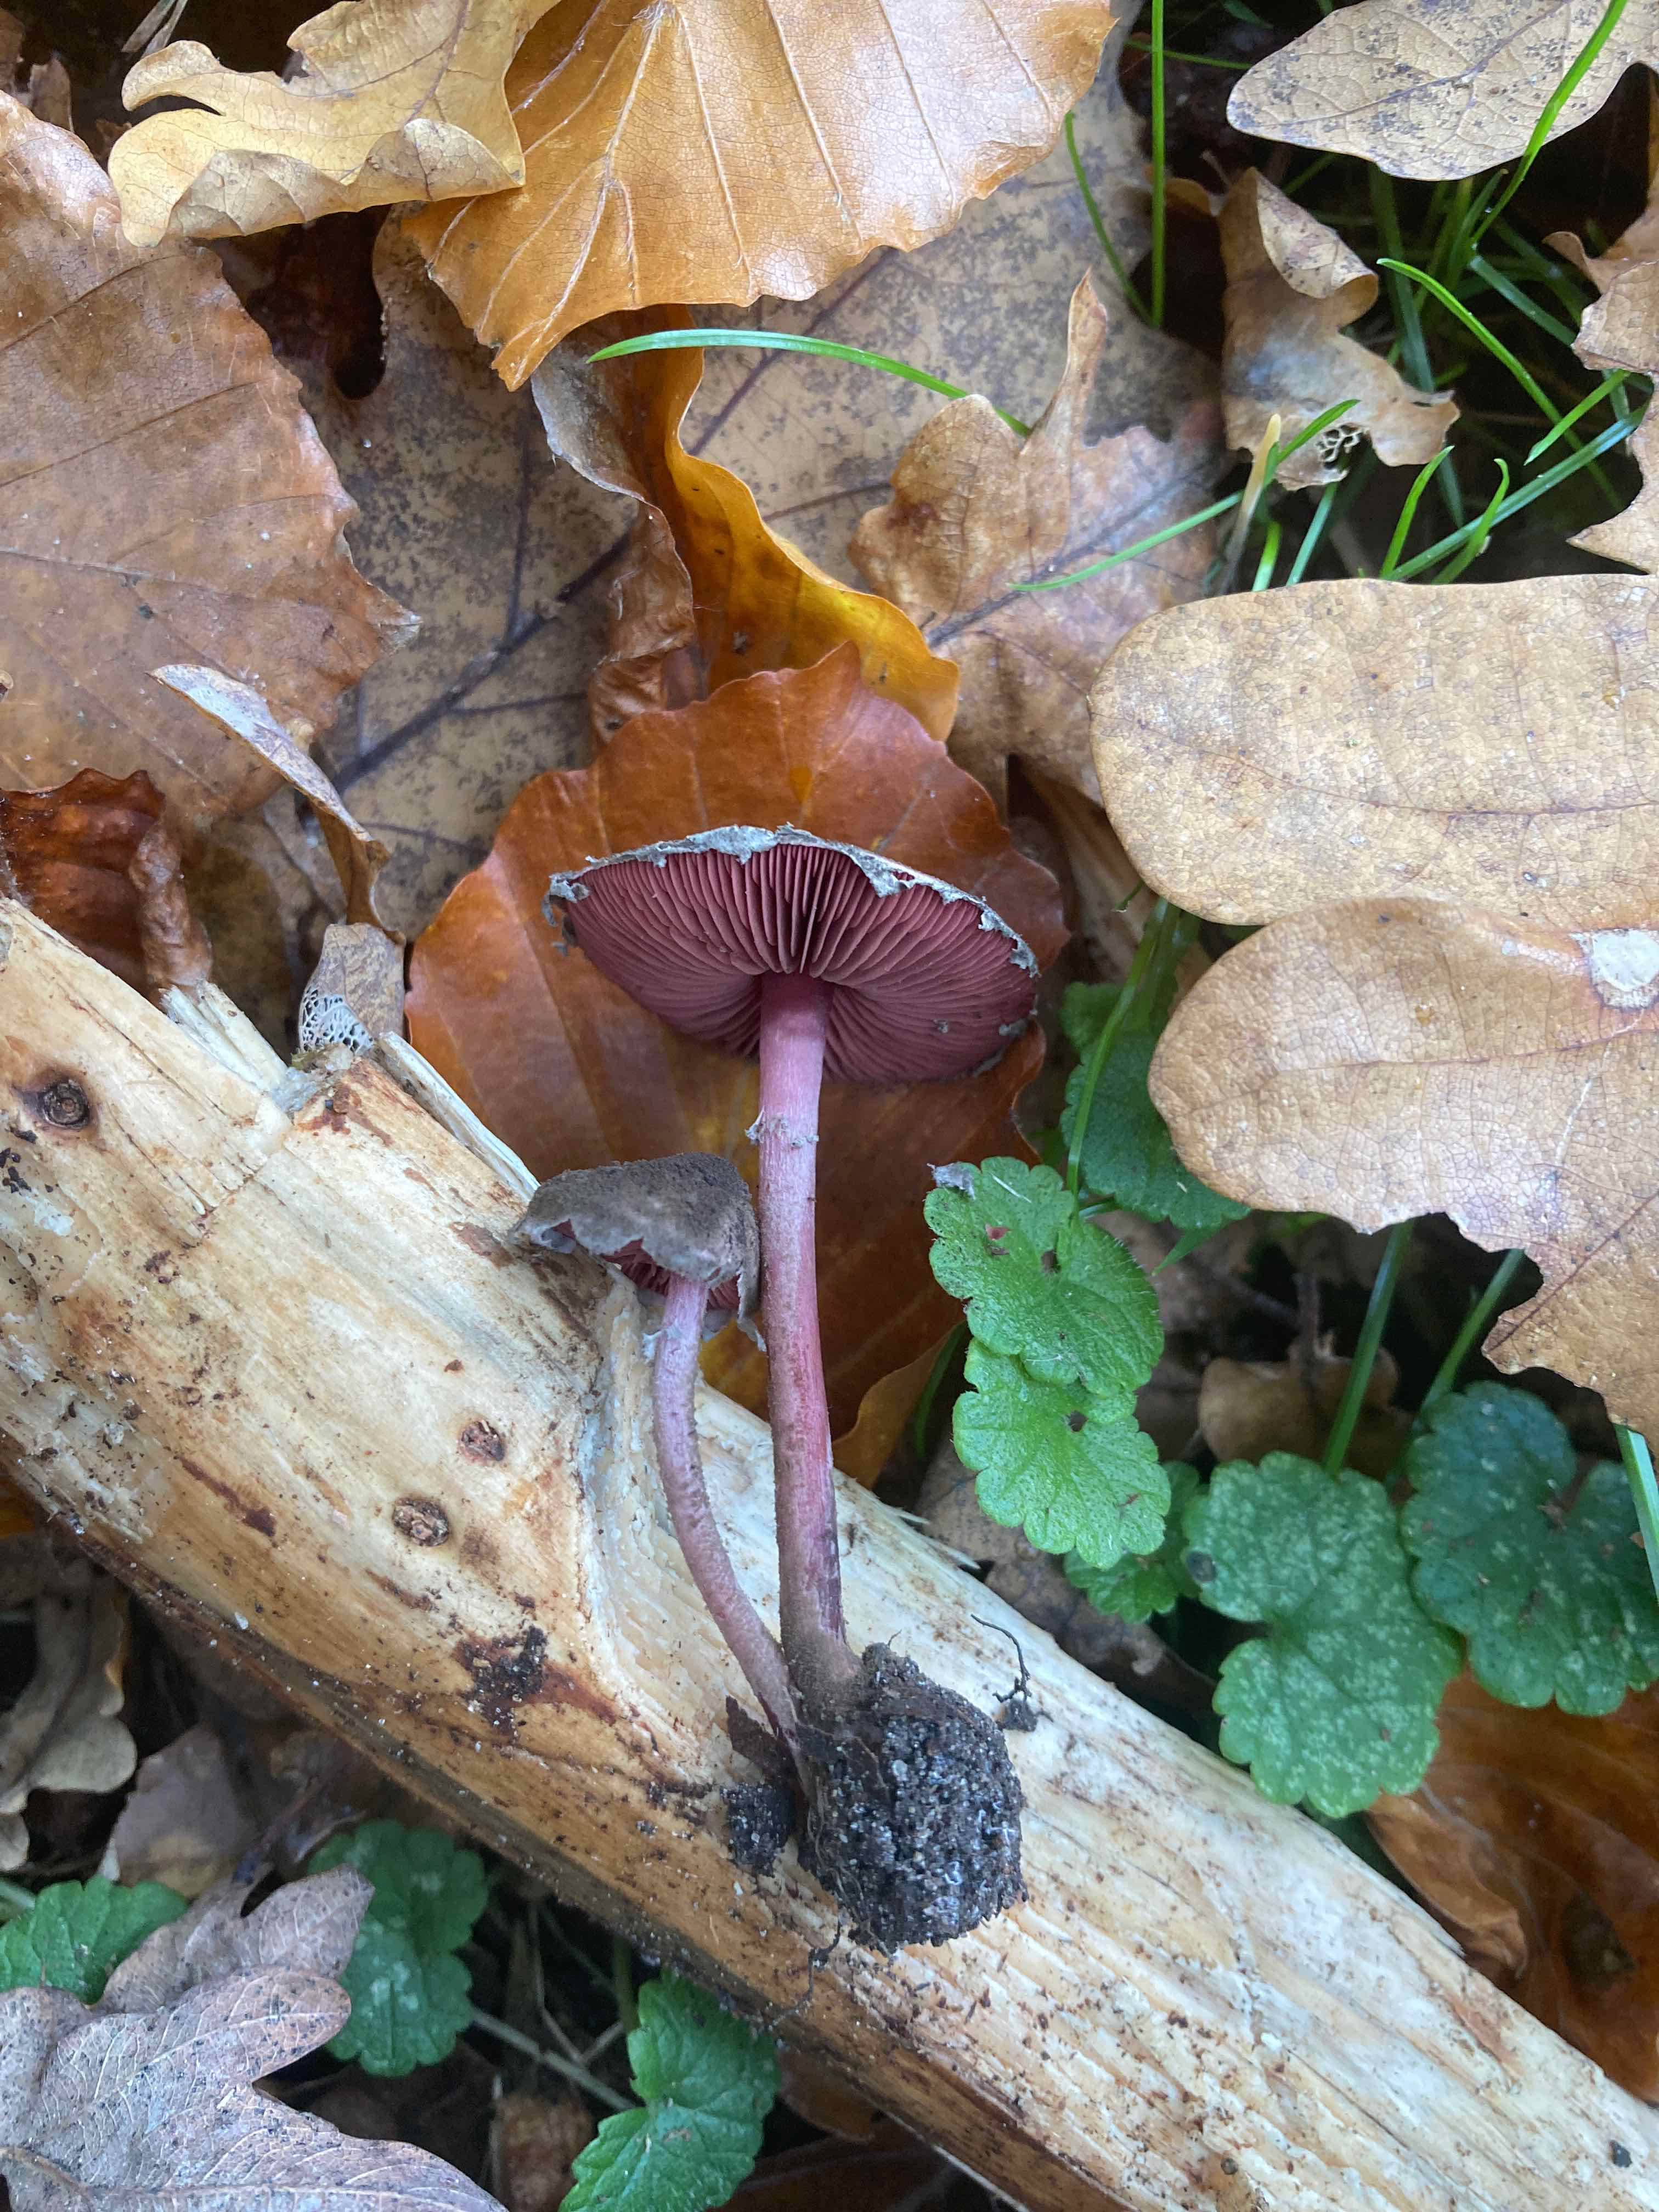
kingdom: Fungi
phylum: Basidiomycota
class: Agaricomycetes
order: Agaricales
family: Agaricaceae
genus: Melanophyllum
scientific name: Melanophyllum haematospermum
